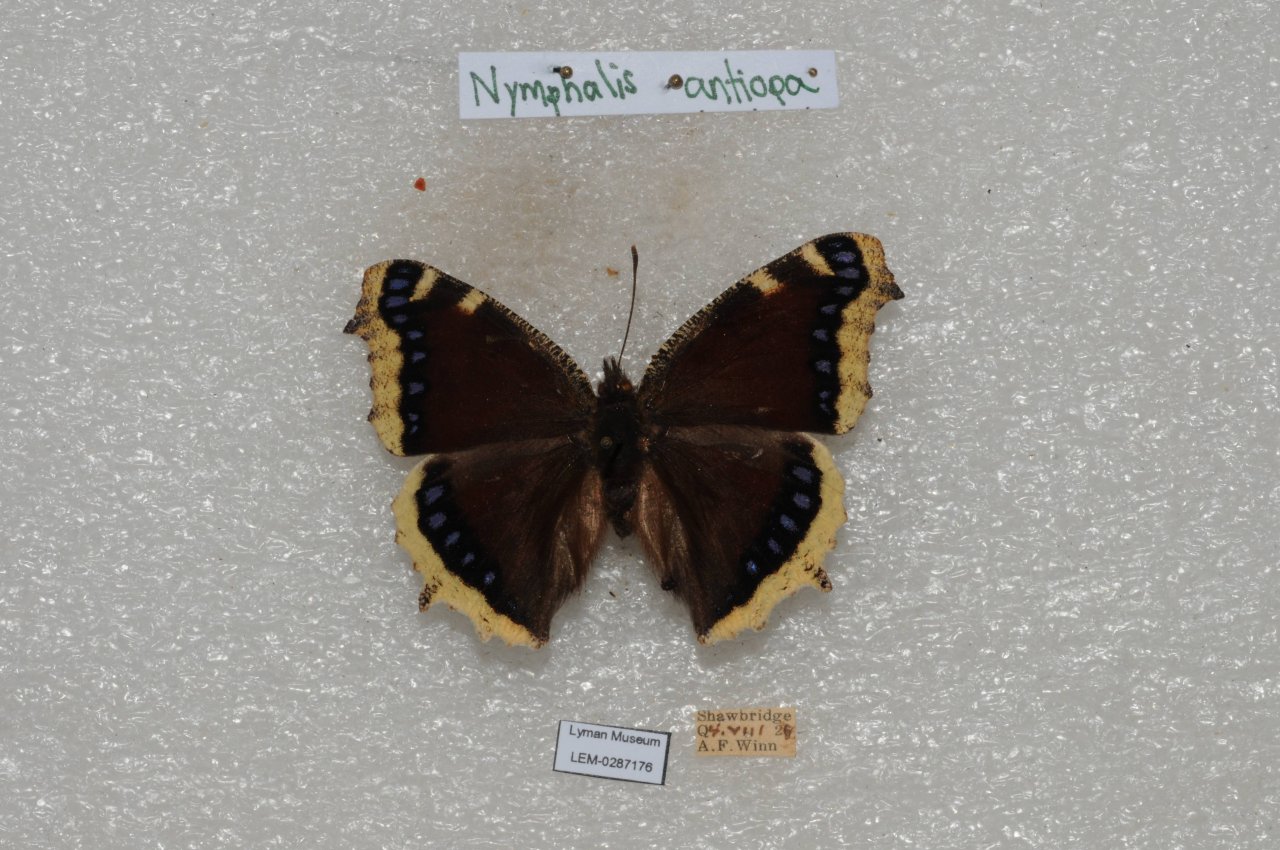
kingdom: Animalia
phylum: Arthropoda
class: Insecta
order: Lepidoptera
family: Nymphalidae
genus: Nymphalis
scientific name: Nymphalis antiopa
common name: Mourning Cloak
